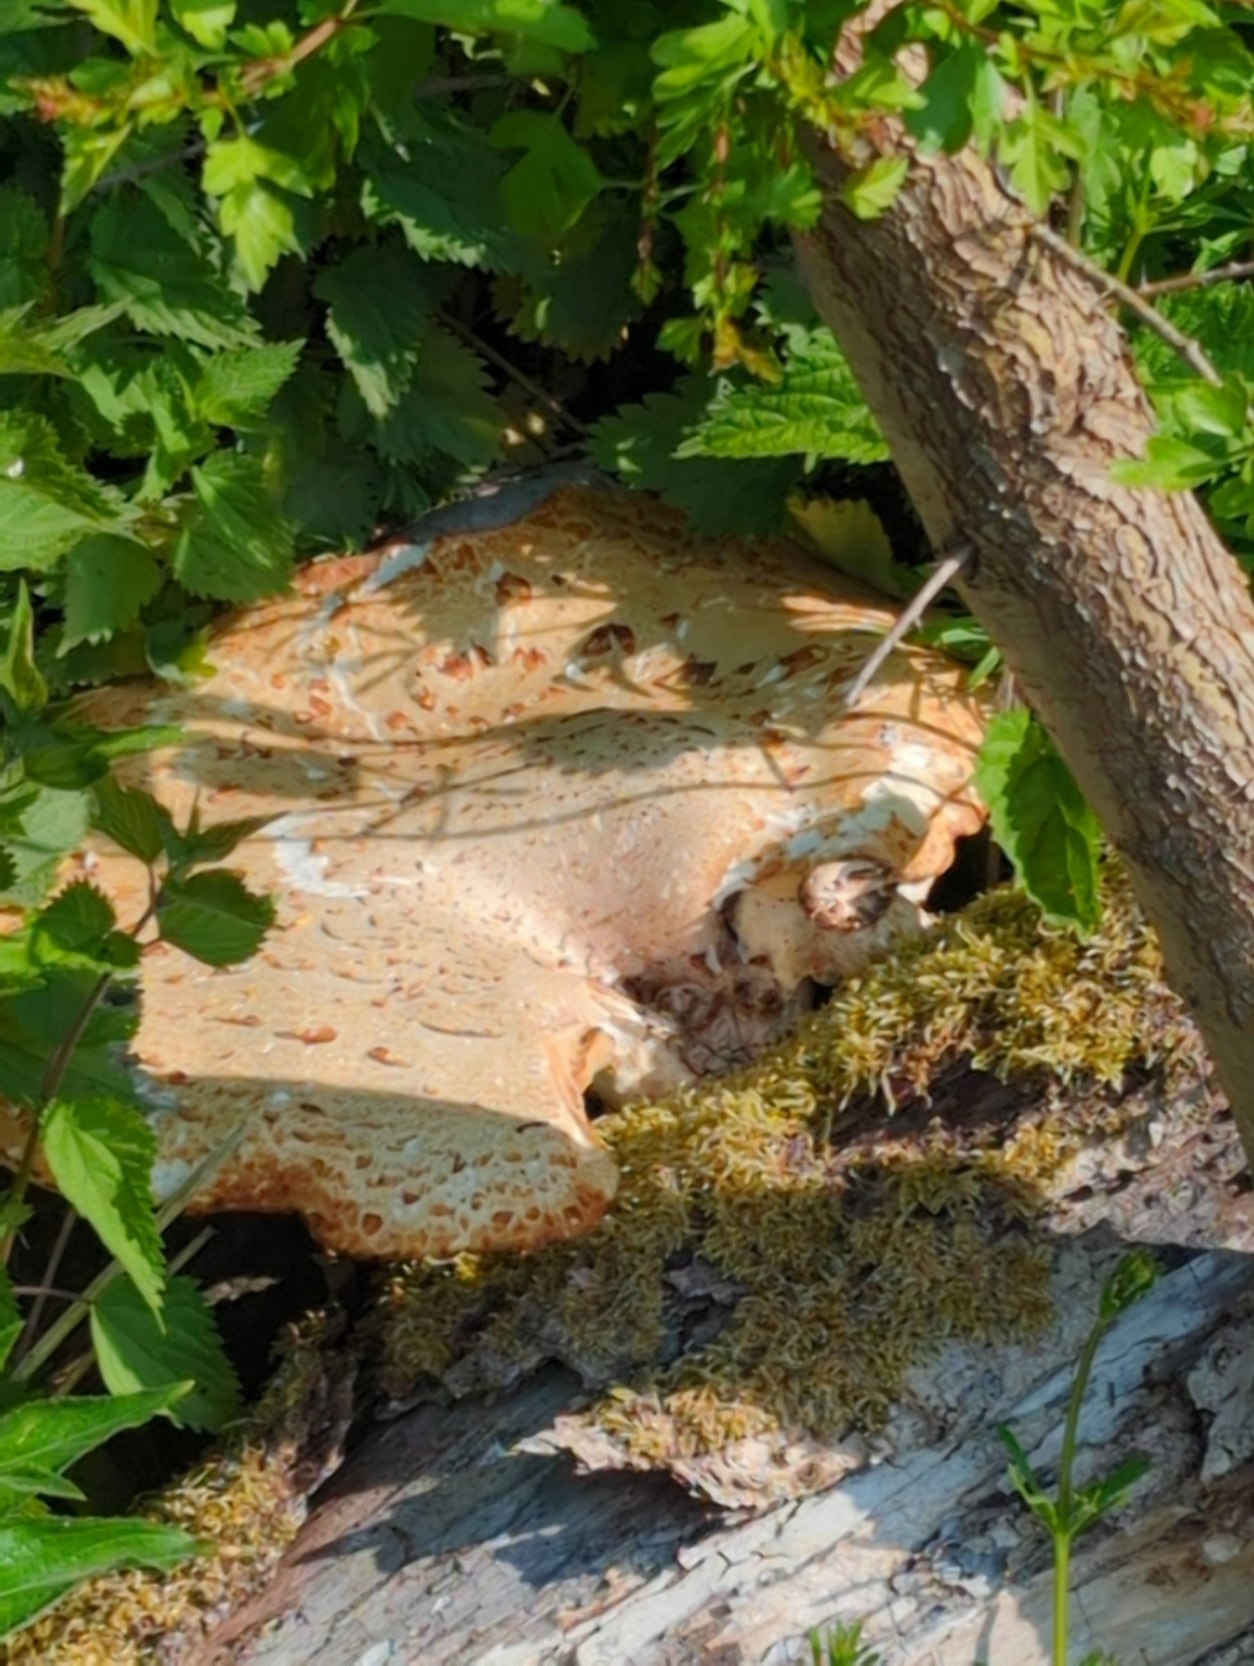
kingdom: Fungi
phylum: Basidiomycota
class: Agaricomycetes
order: Polyporales
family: Polyporaceae
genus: Cerioporus
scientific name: Cerioporus squamosus
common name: Skællet stilkporesvamp
